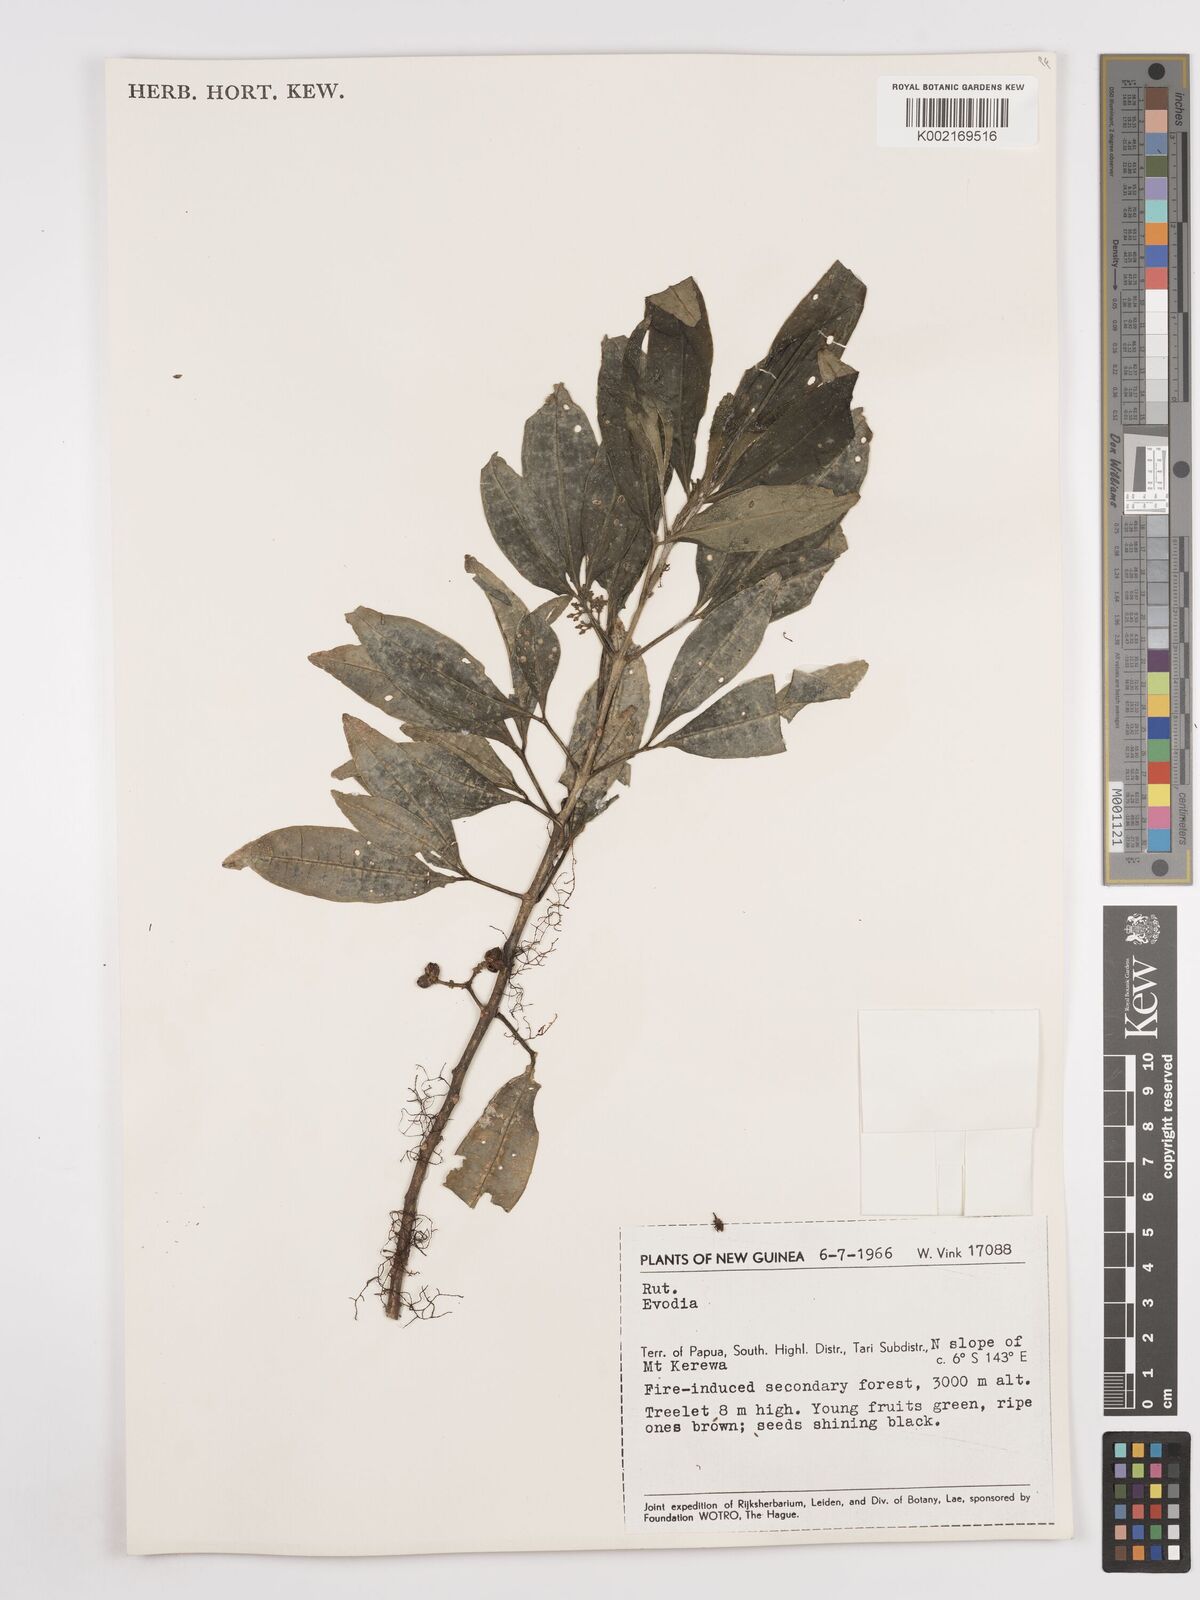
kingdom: Plantae
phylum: Tracheophyta
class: Magnoliopsida
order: Sapindales
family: Rutaceae
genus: Euodia
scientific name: Euodia
